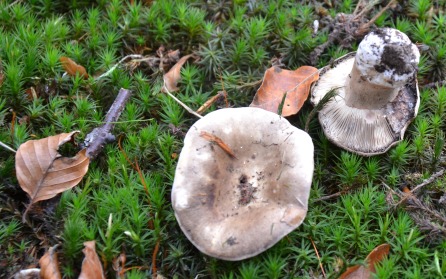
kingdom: Fungi
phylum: Basidiomycota
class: Agaricomycetes
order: Russulales
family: Russulaceae
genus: Russula
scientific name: Russula densifolia
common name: tætbladet skørhat
